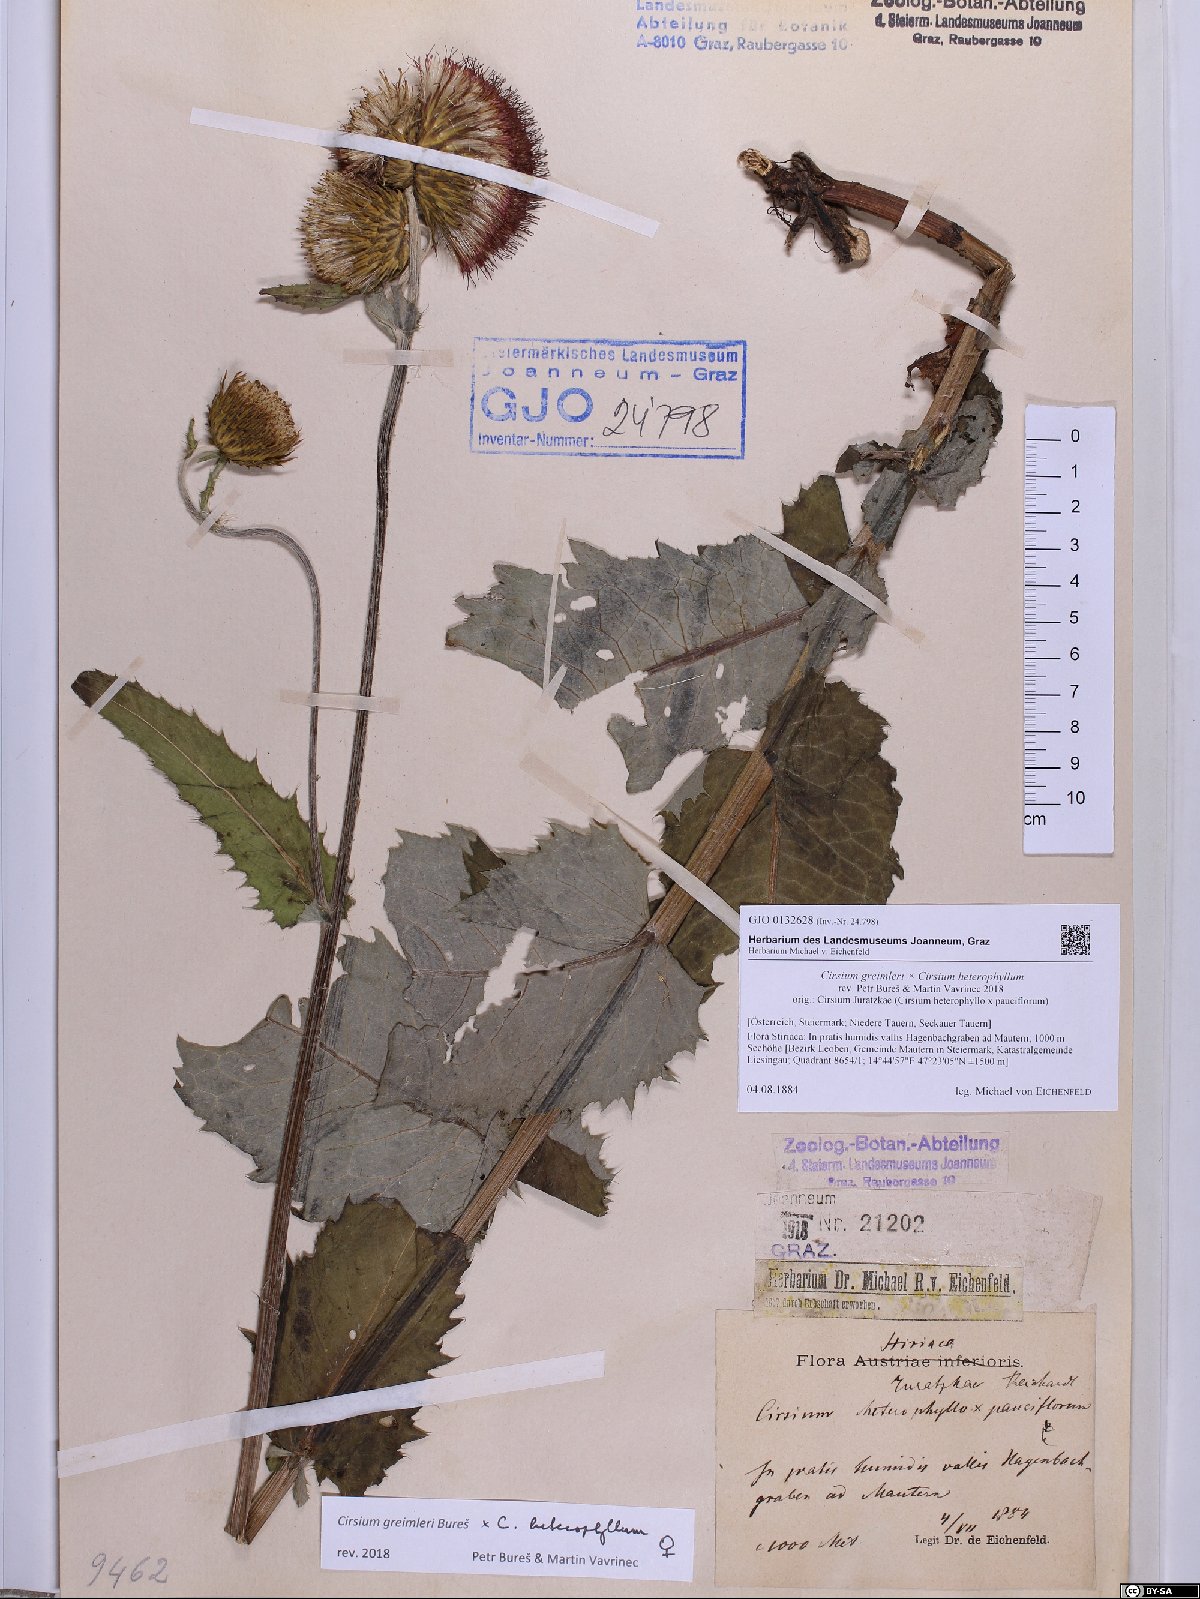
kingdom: Plantae
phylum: Tracheophyta
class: Magnoliopsida
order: Asterales
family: Asteraceae
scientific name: Asteraceae
